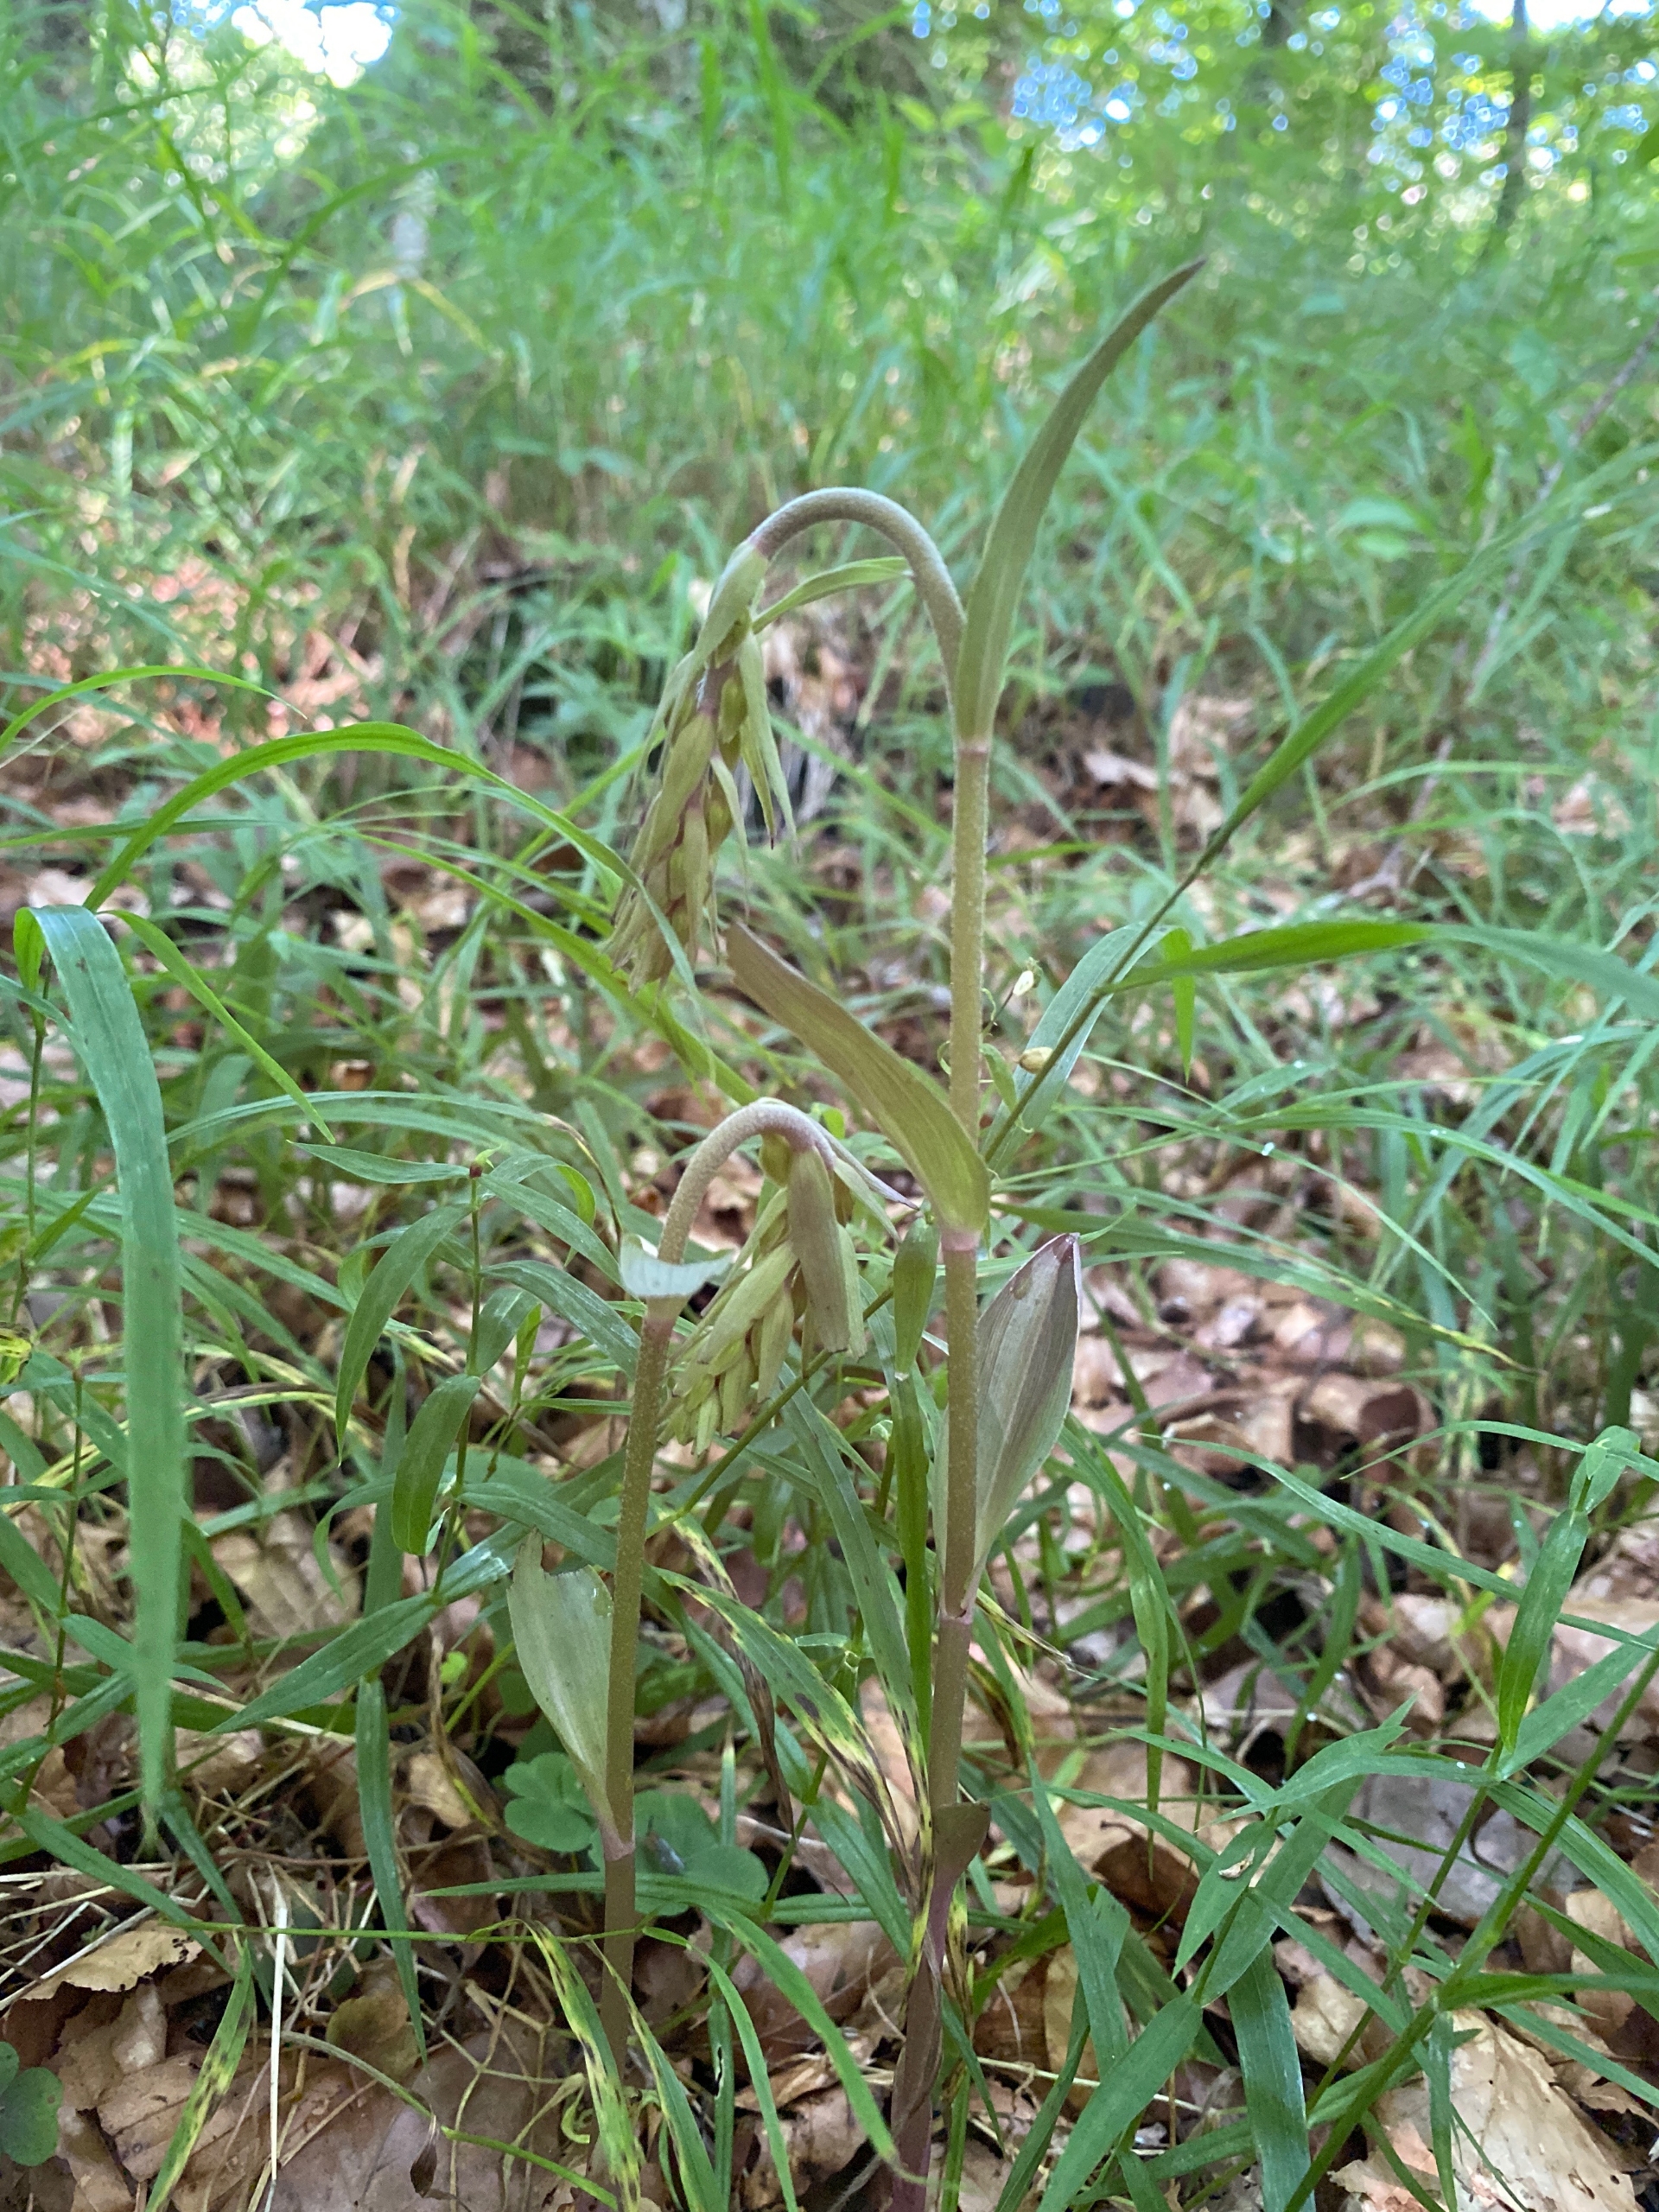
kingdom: Plantae
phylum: Tracheophyta
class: Liliopsida
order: Asparagales
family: Orchidaceae
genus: Epipactis
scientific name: Epipactis purpurata
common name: Tætblomstret hullæbe
